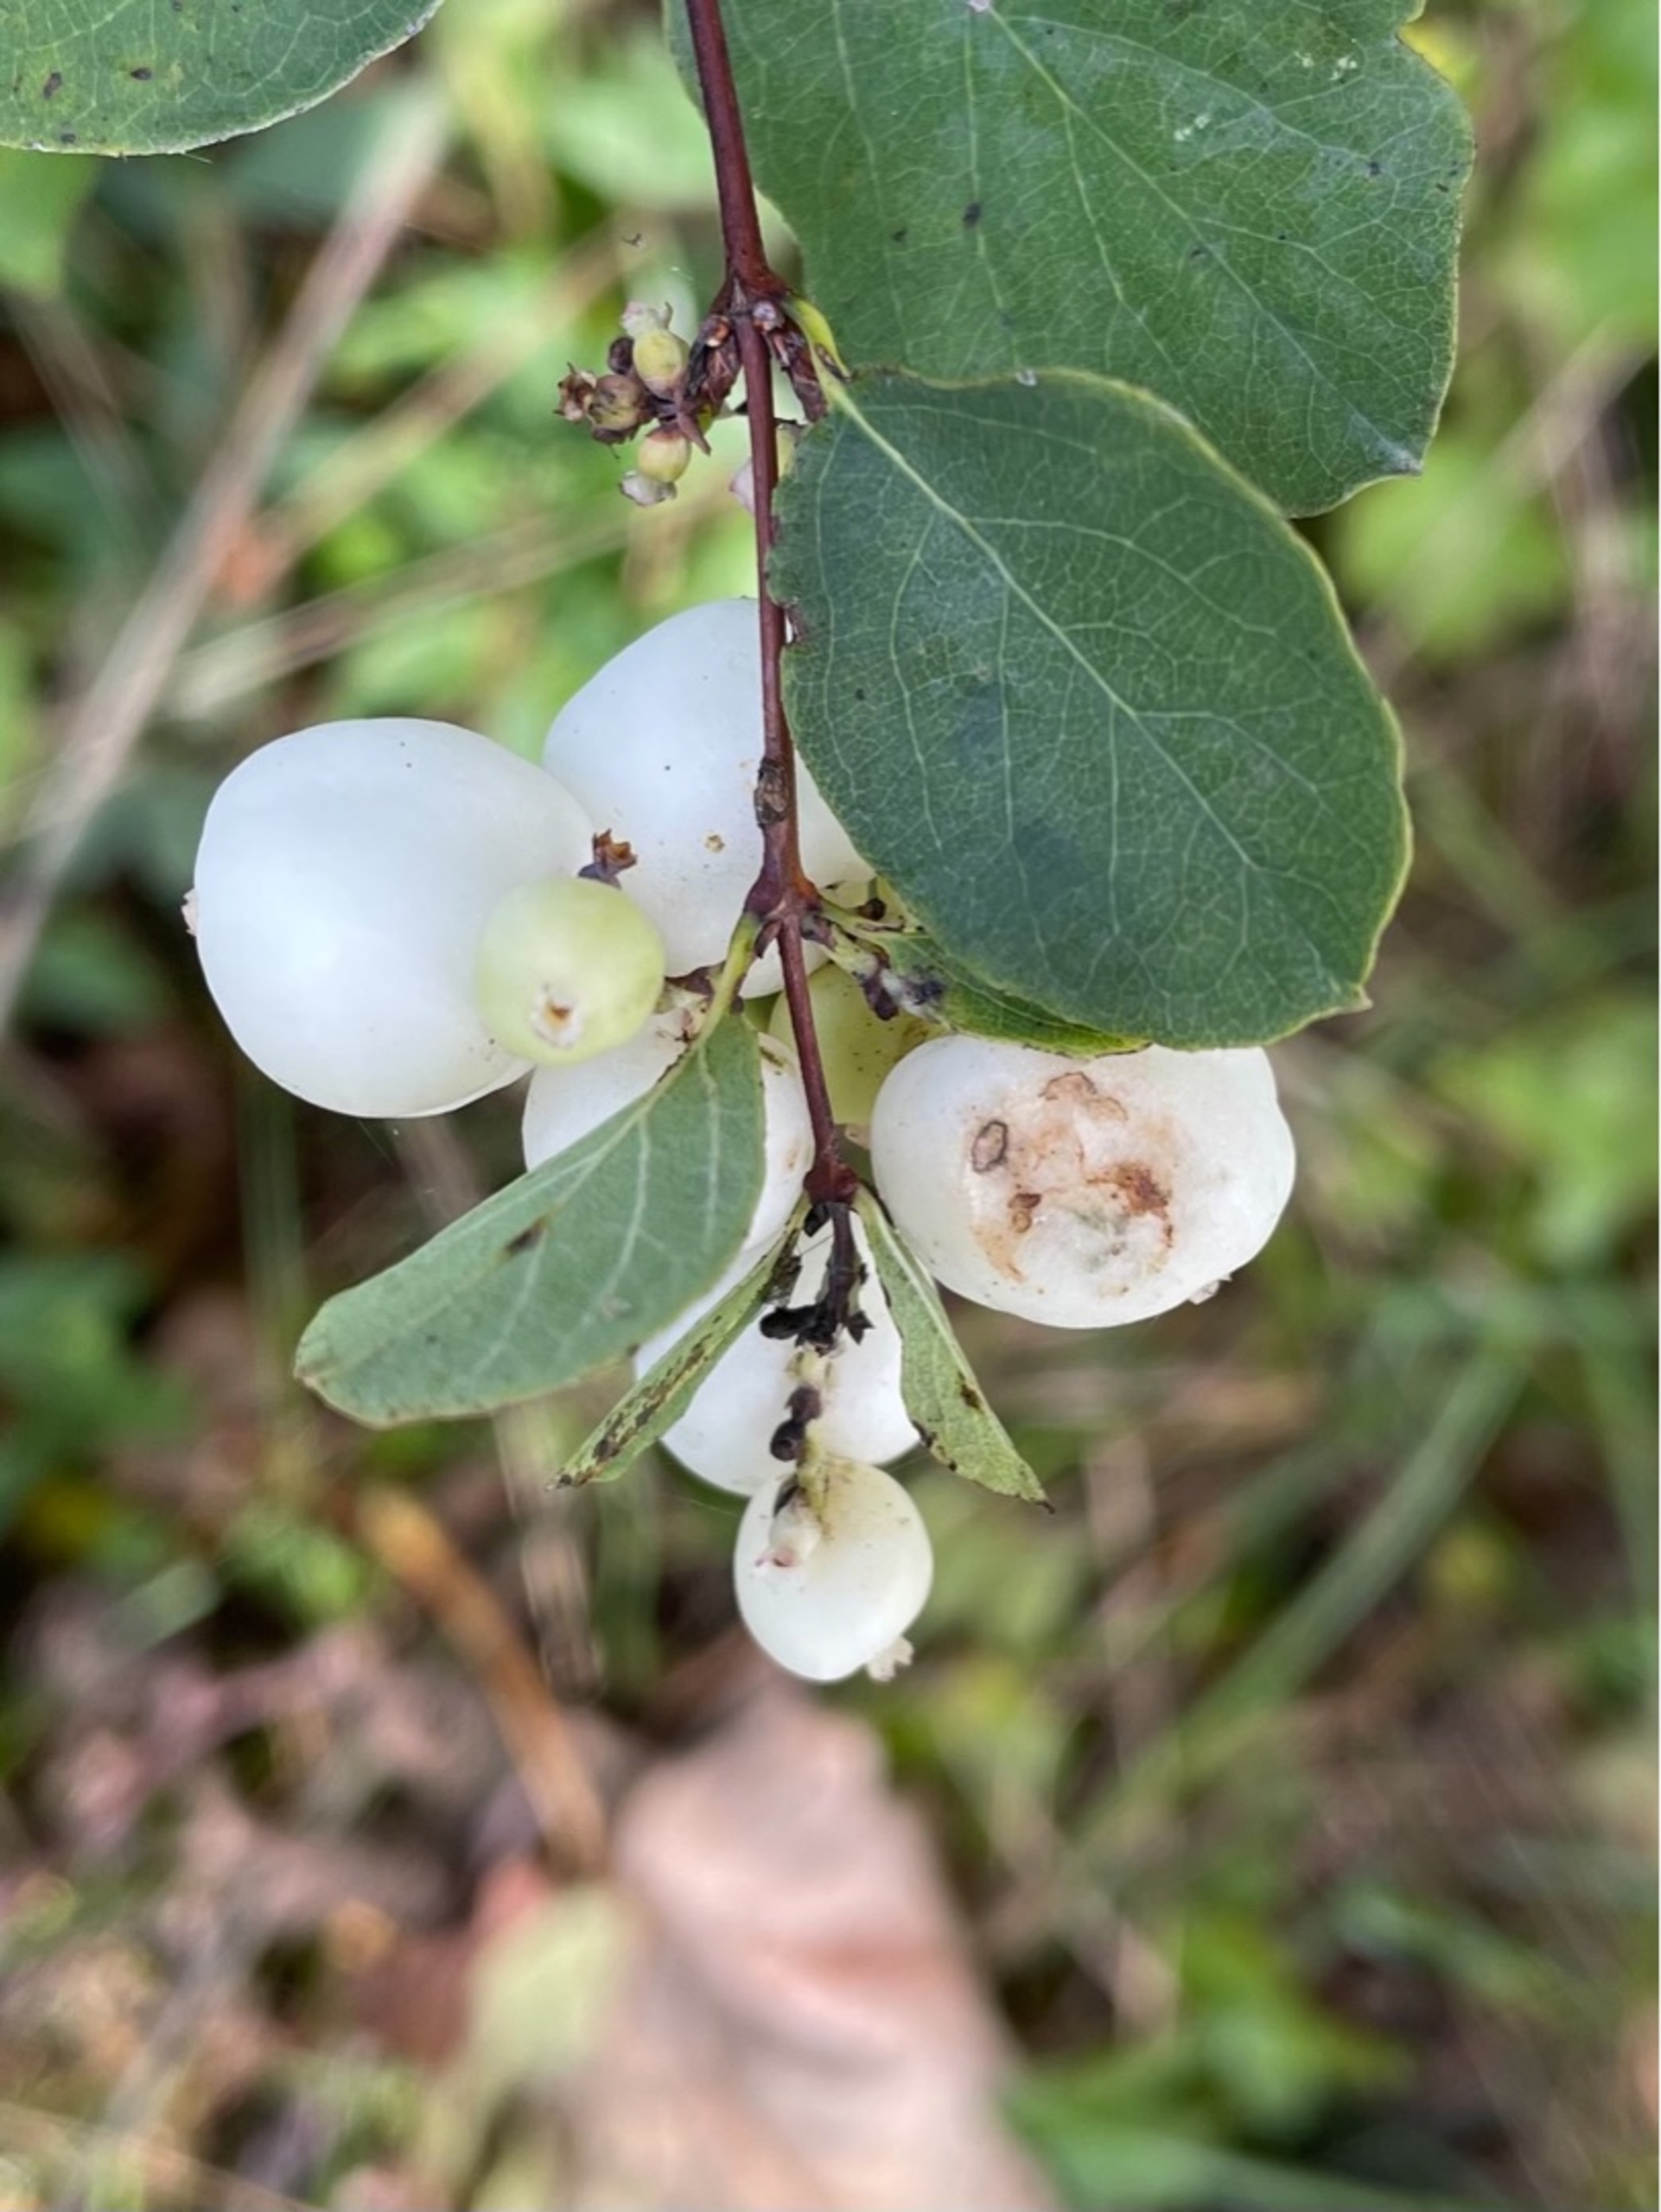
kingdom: Plantae
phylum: Tracheophyta
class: Magnoliopsida
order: Dipsacales
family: Caprifoliaceae
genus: Symphoricarpos
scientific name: Symphoricarpos albus
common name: Almindelig snebær
